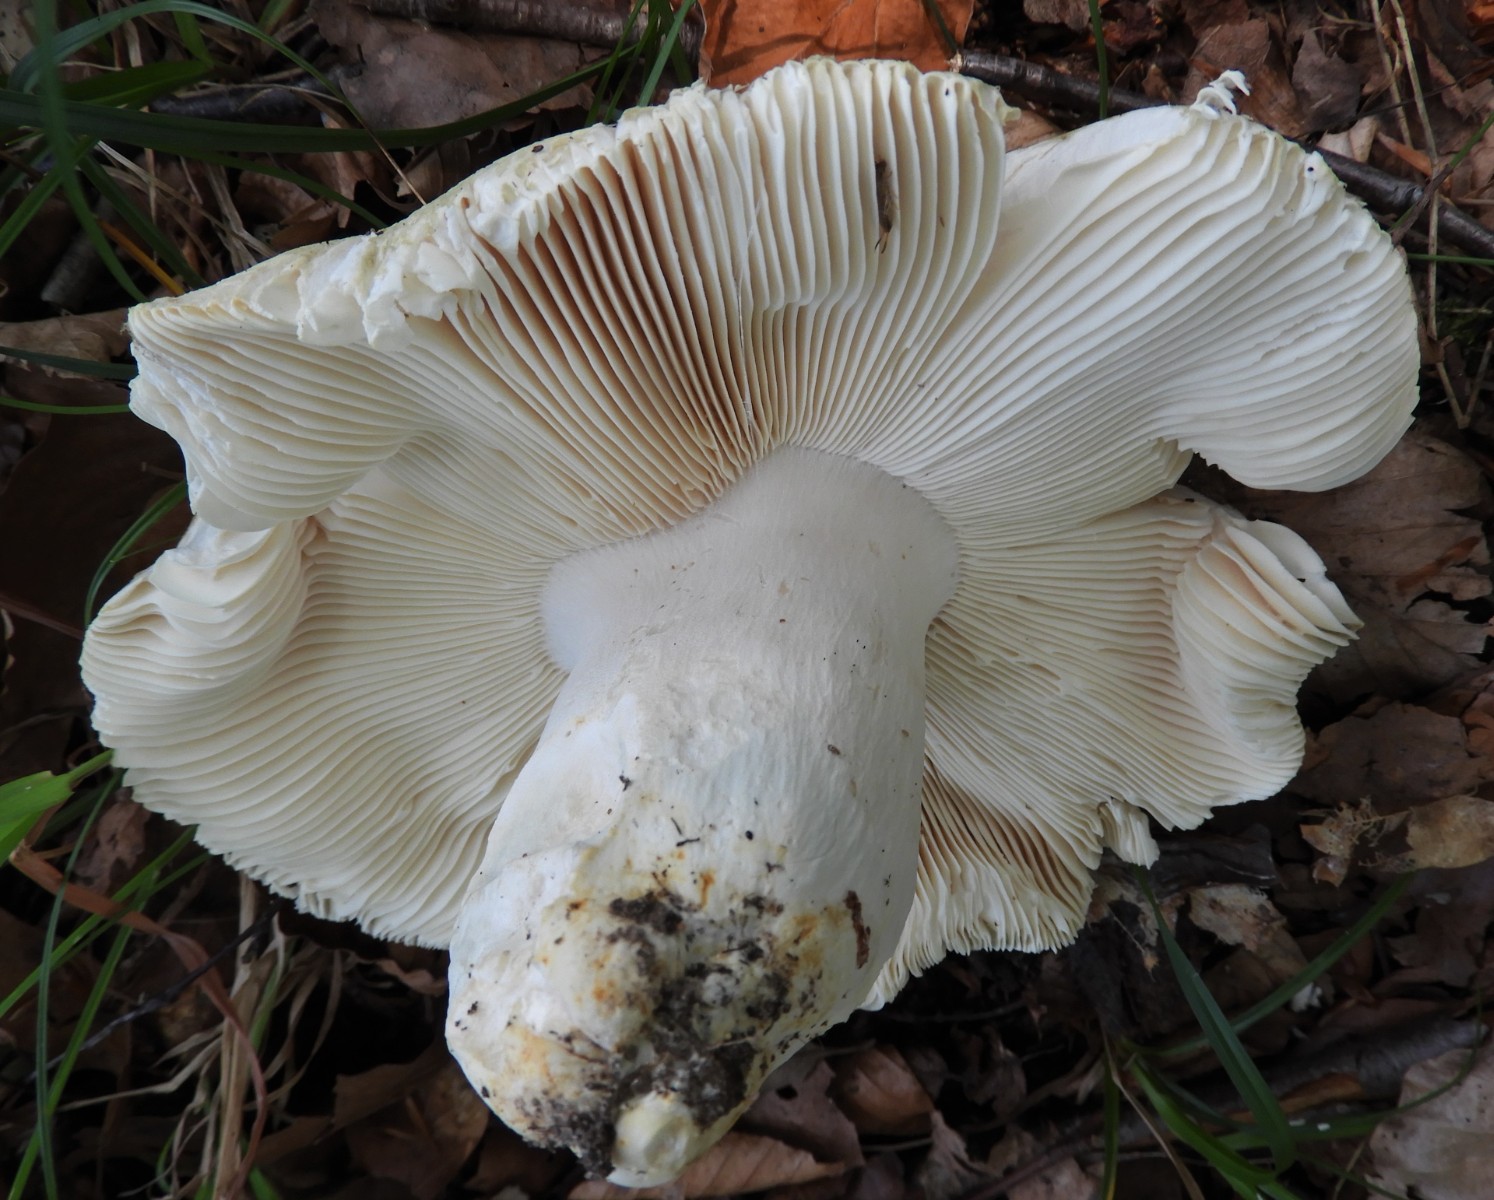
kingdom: Fungi
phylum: Basidiomycota
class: Agaricomycetes
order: Russulales
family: Russulaceae
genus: Russula
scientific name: Russula virescens
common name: spanskgrøn skørhat
